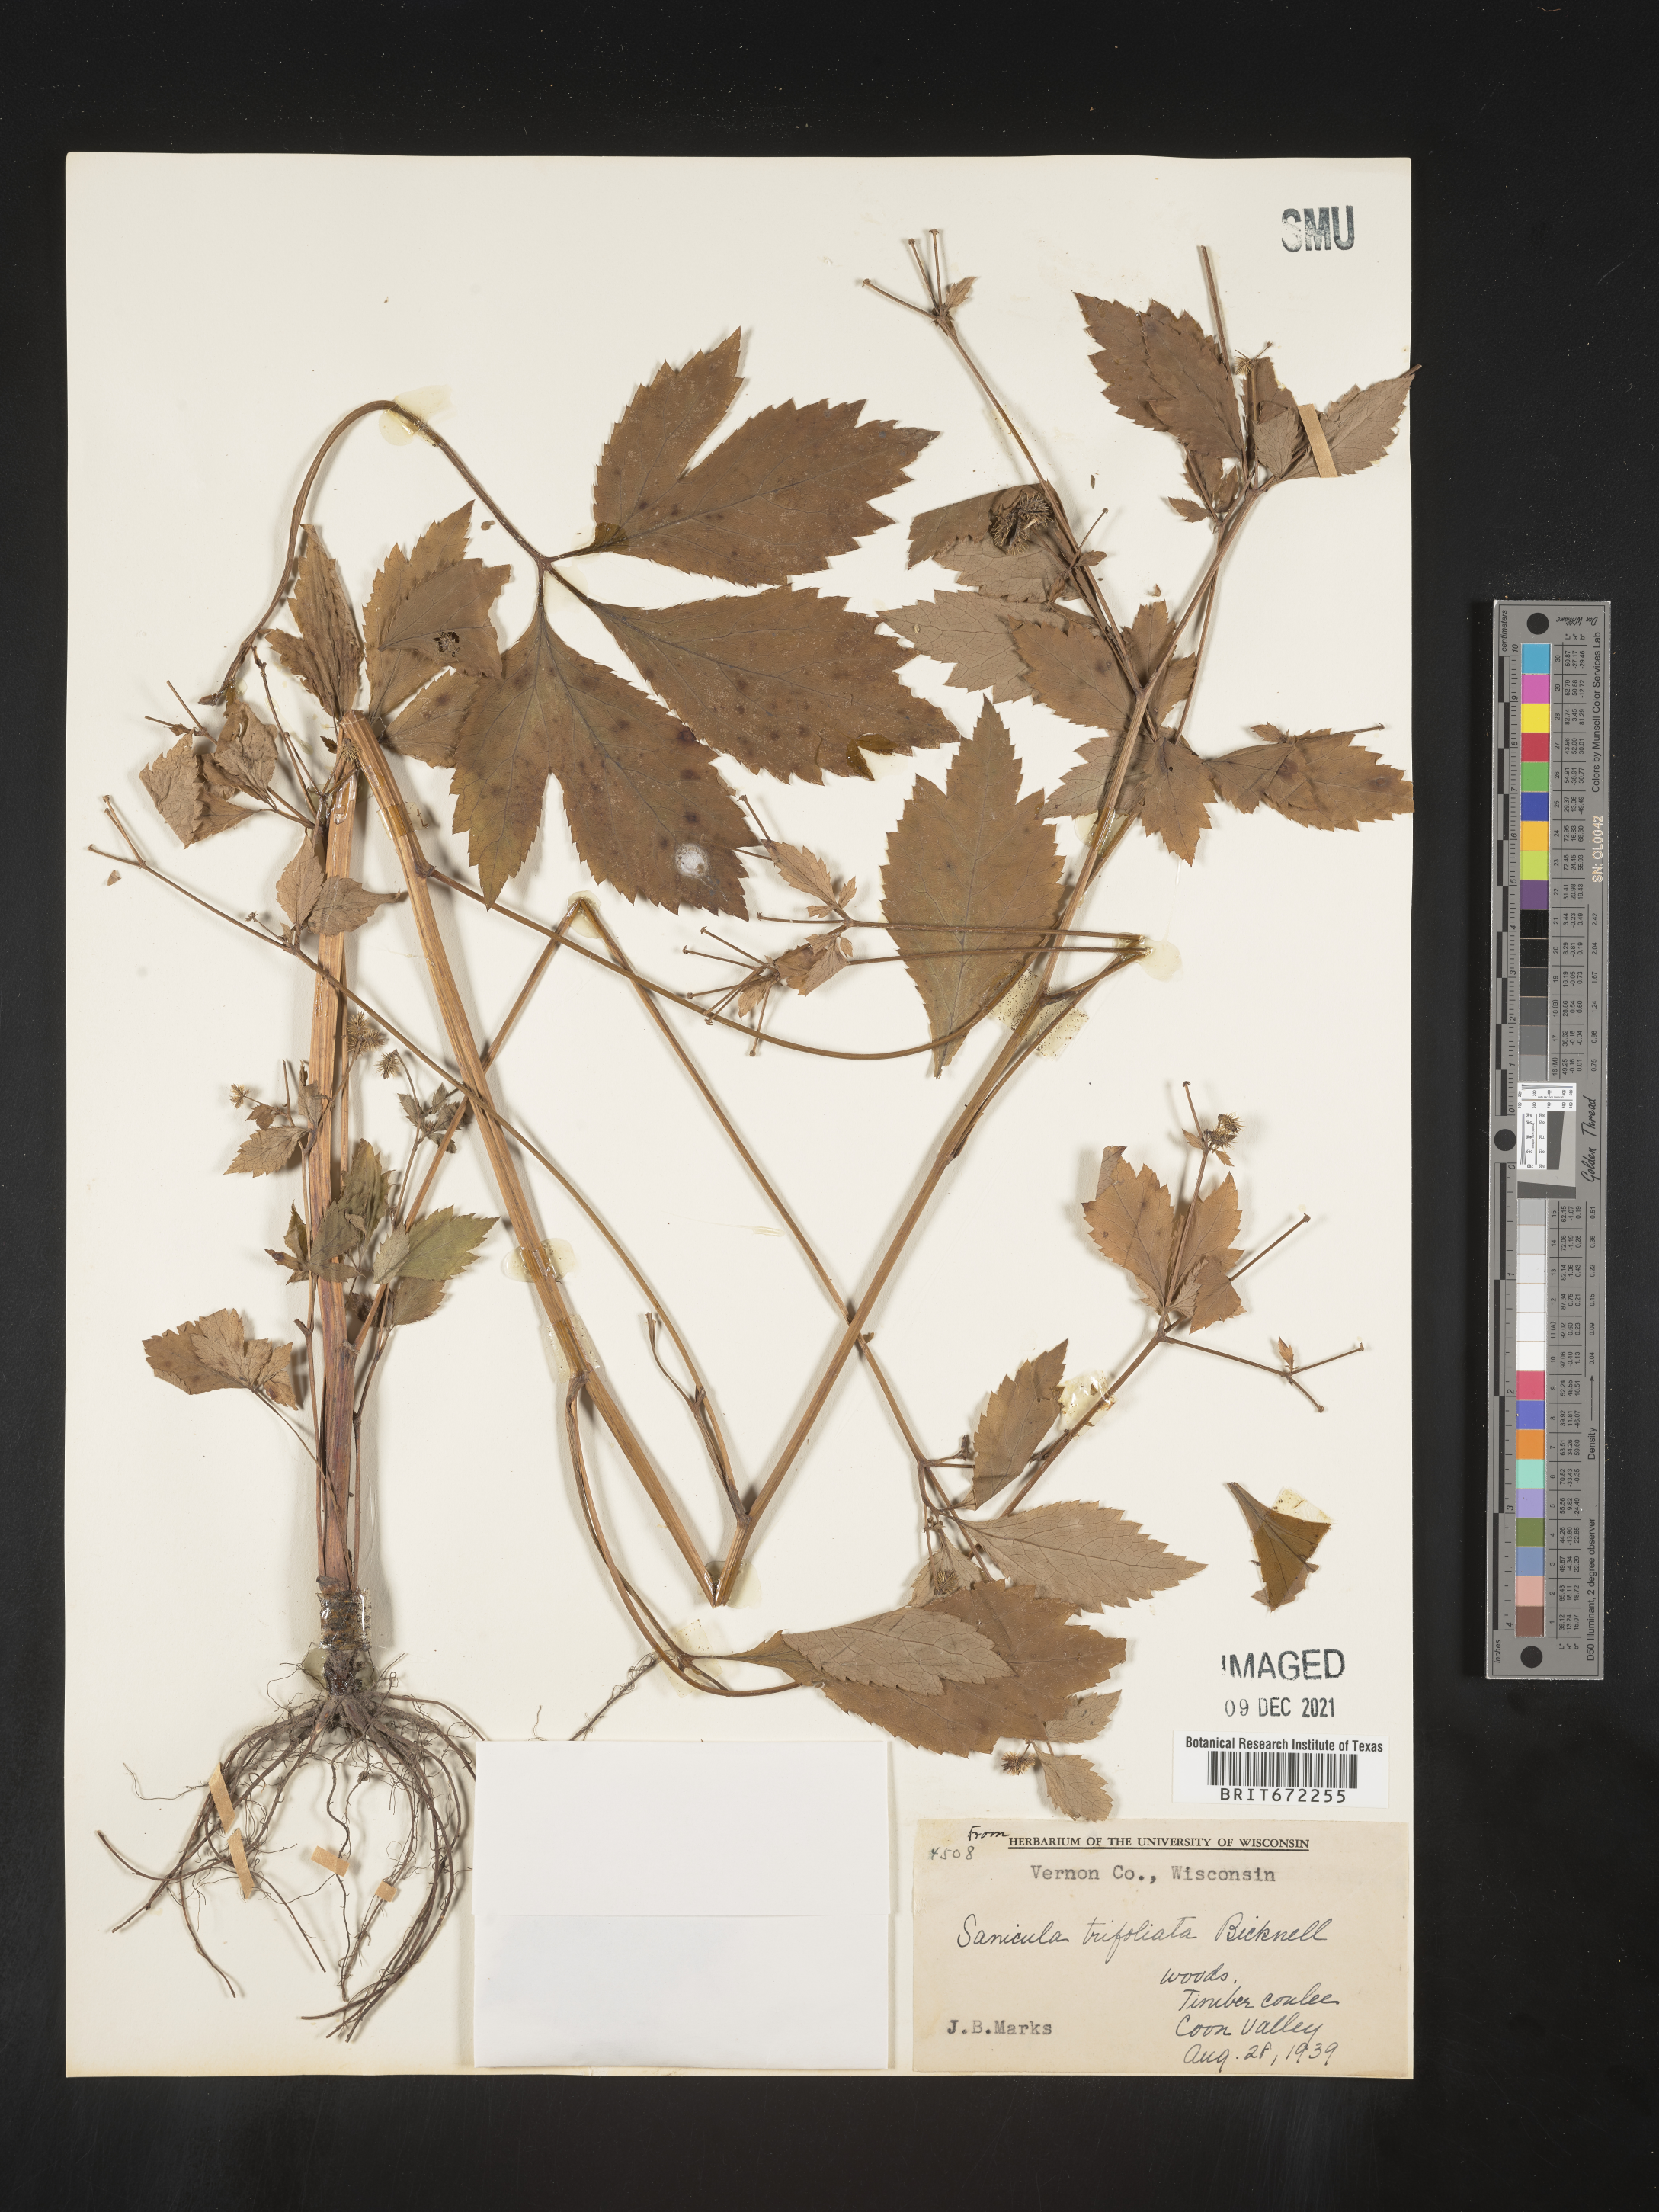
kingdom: Plantae
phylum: Tracheophyta
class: Magnoliopsida
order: Apiales
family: Apiaceae
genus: Sanicula
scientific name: Sanicula
